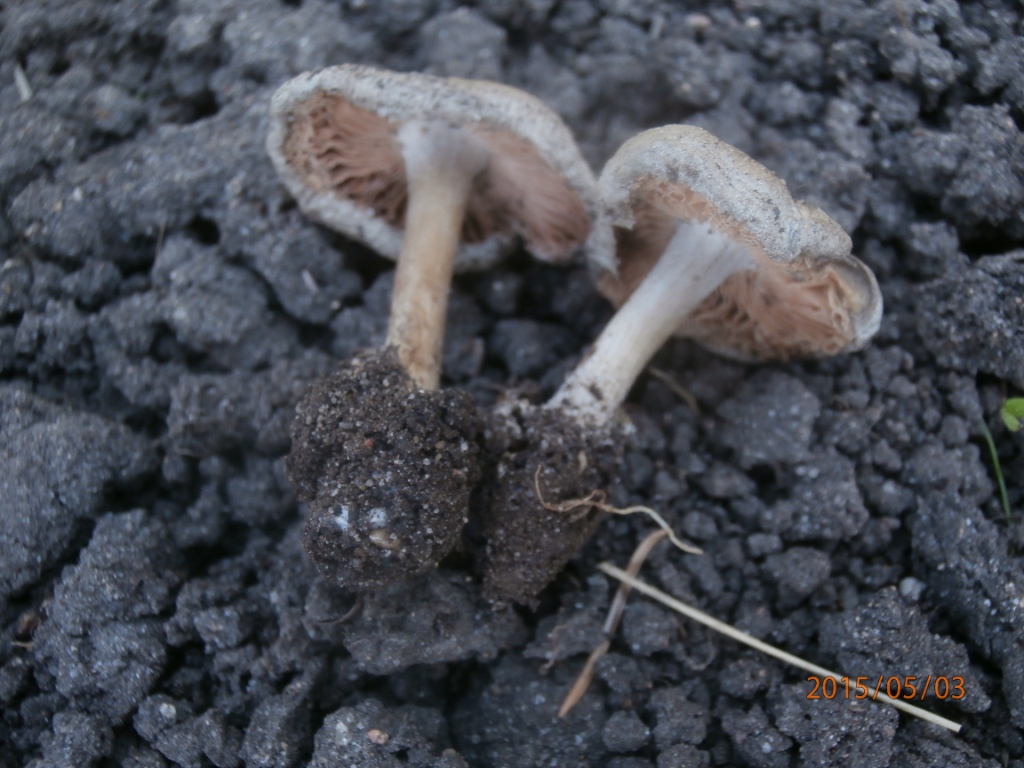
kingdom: Fungi
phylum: Basidiomycota
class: Agaricomycetes
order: Agaricales
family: Pluteaceae
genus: Volvariella
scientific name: Volvariella murinella
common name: musegrå posesvamp
